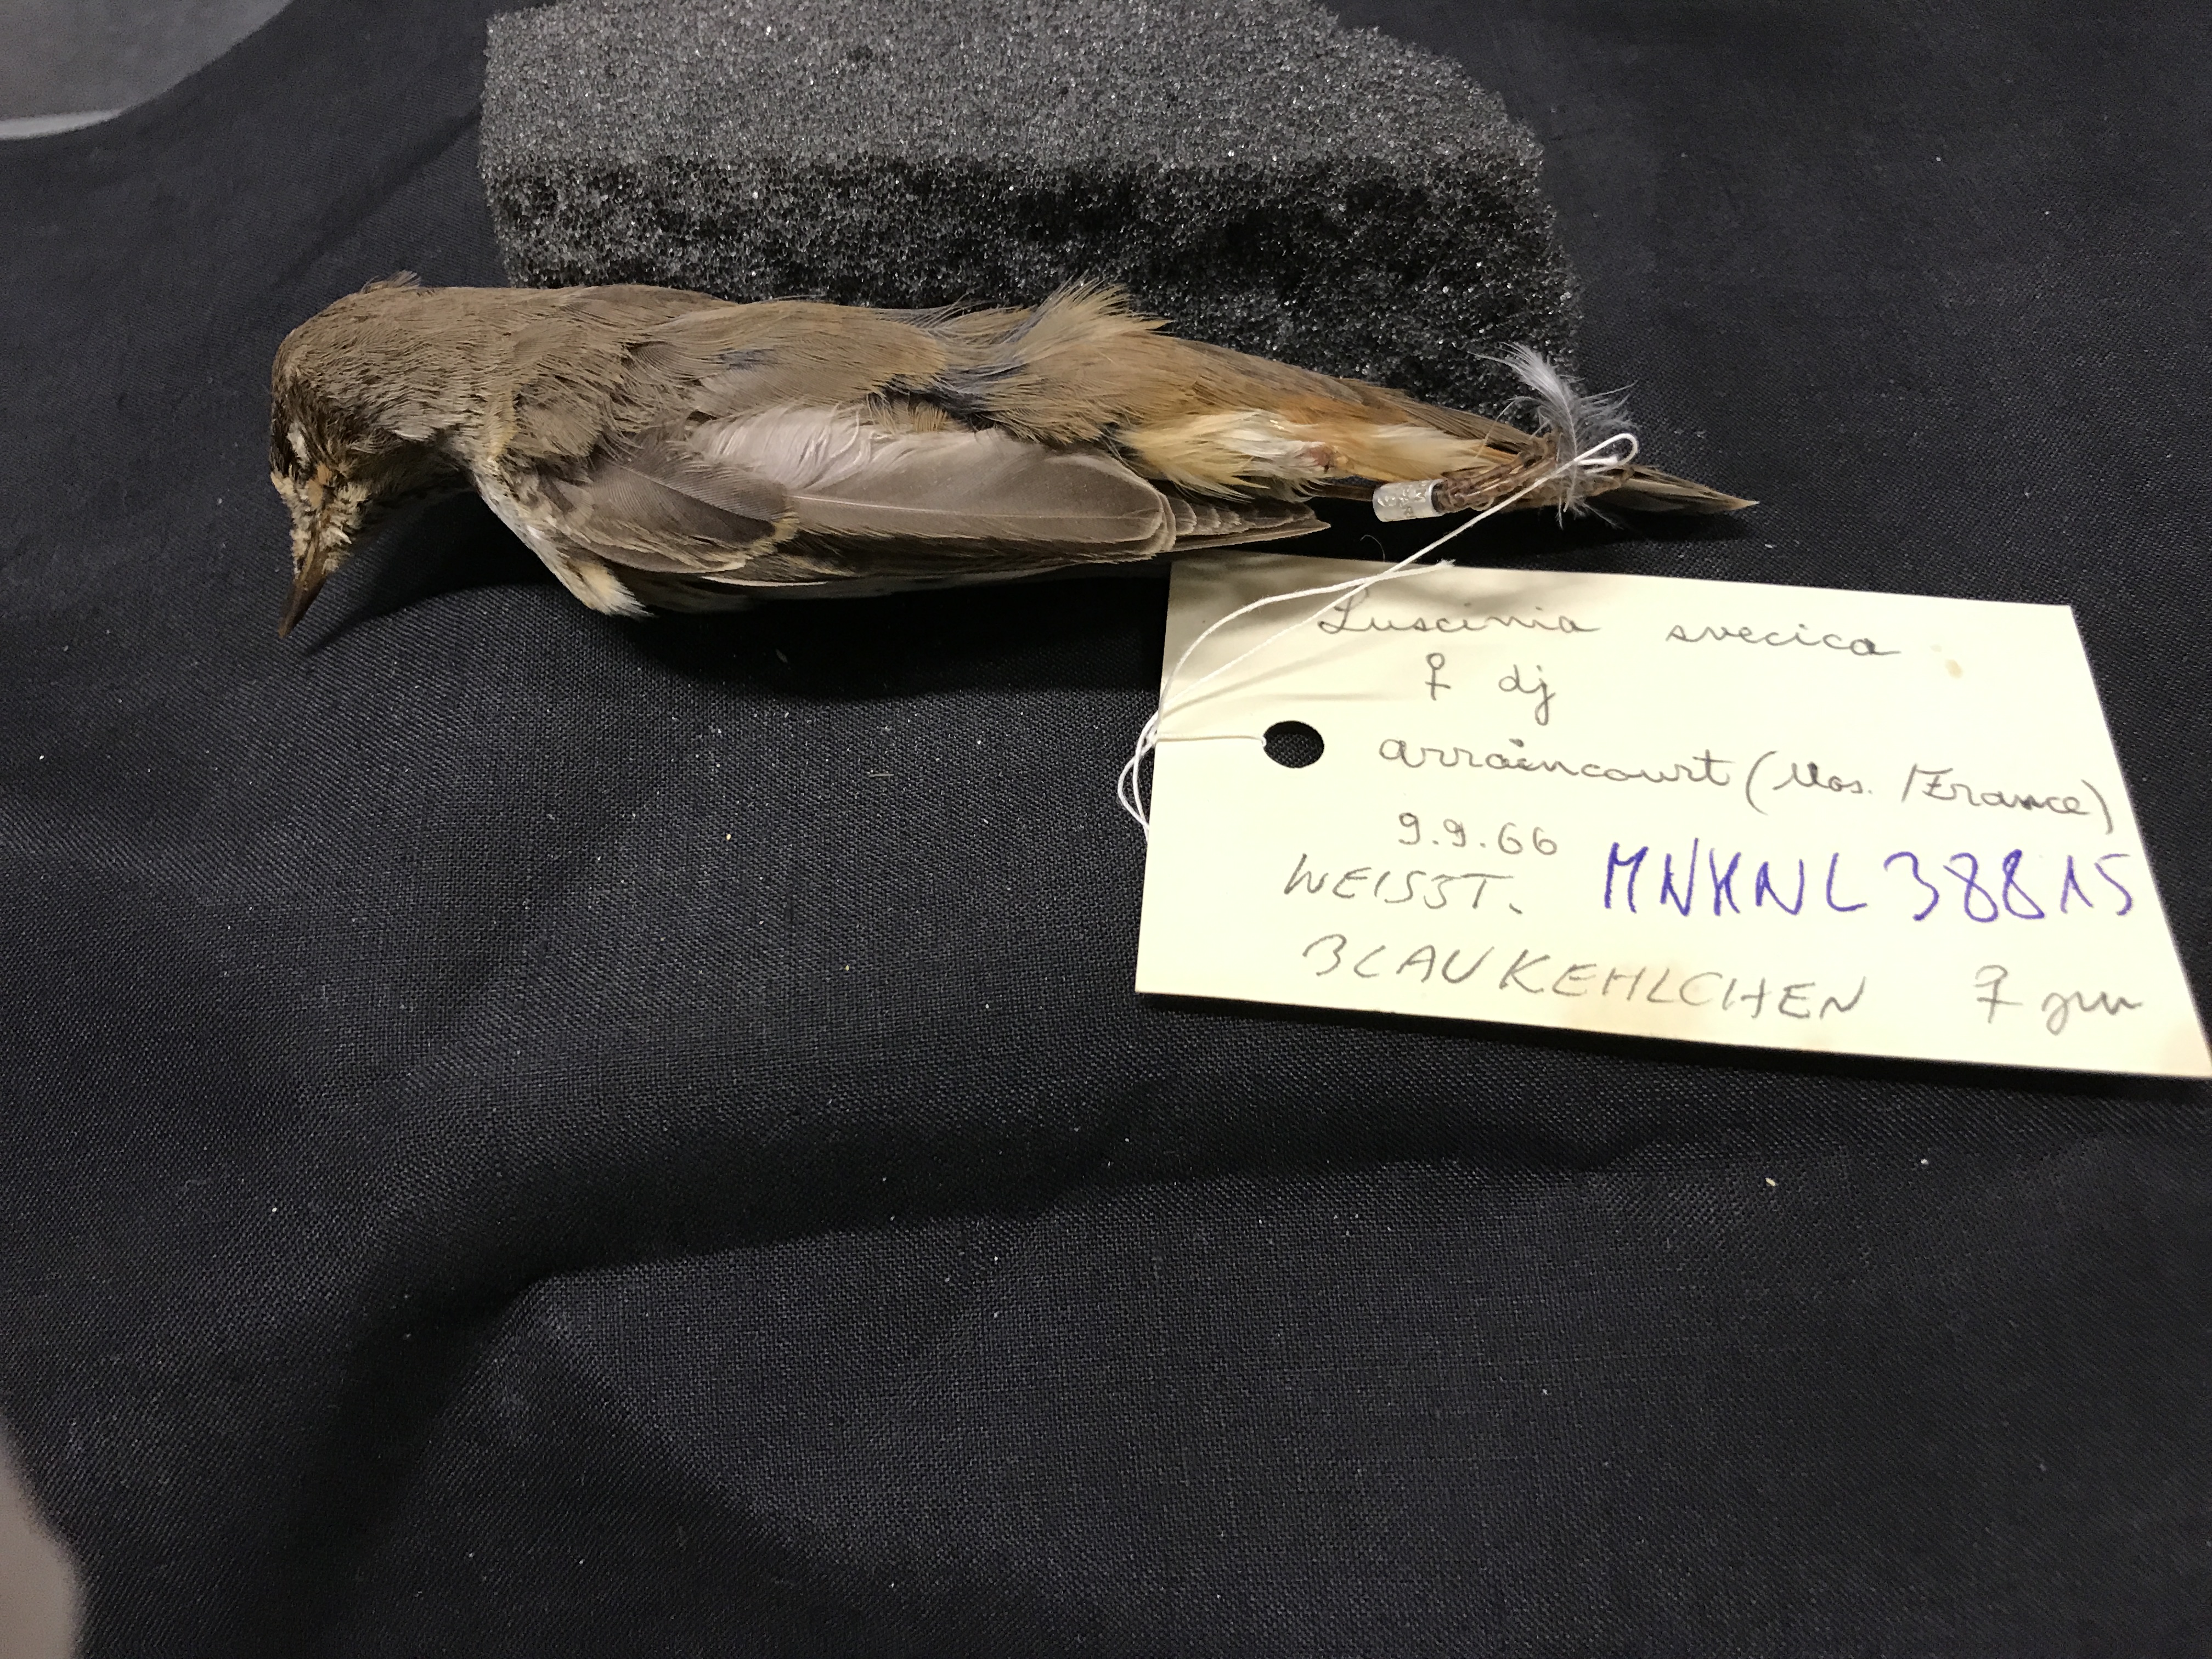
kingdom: Animalia
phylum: Chordata
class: Aves
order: Passeriformes
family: Muscicapidae
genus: Luscinia
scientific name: Luscinia svecica
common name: Bluethroat
